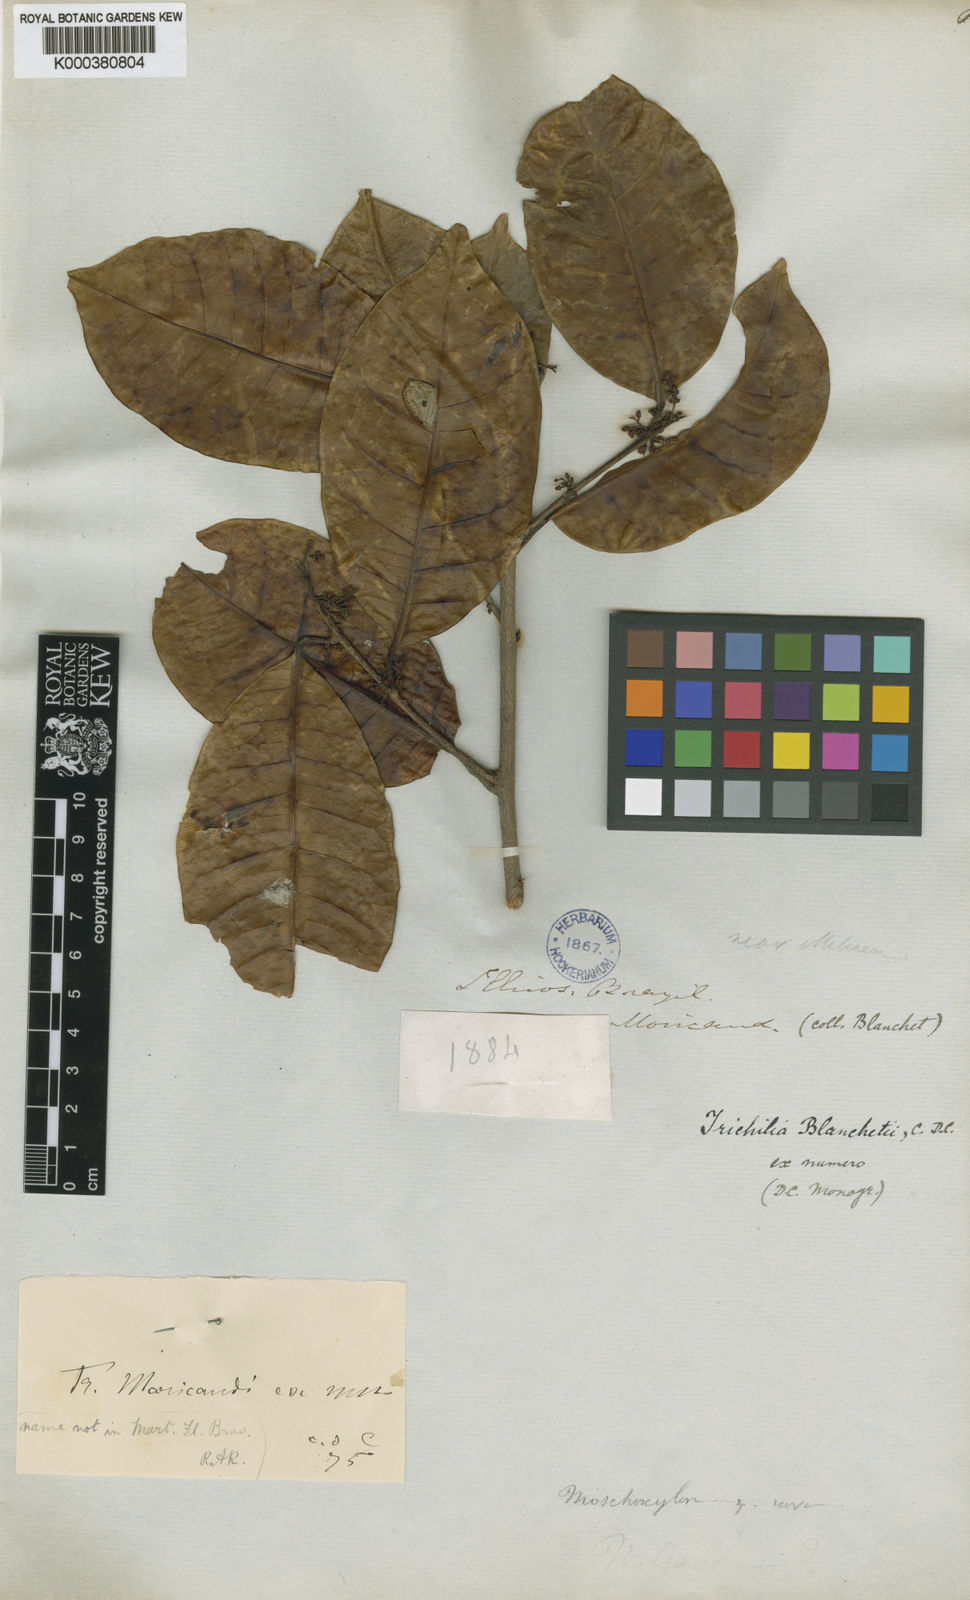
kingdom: Plantae
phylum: Tracheophyta
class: Magnoliopsida
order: Sapindales
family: Meliaceae
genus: Trichilia
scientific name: Trichilia blanchetii
